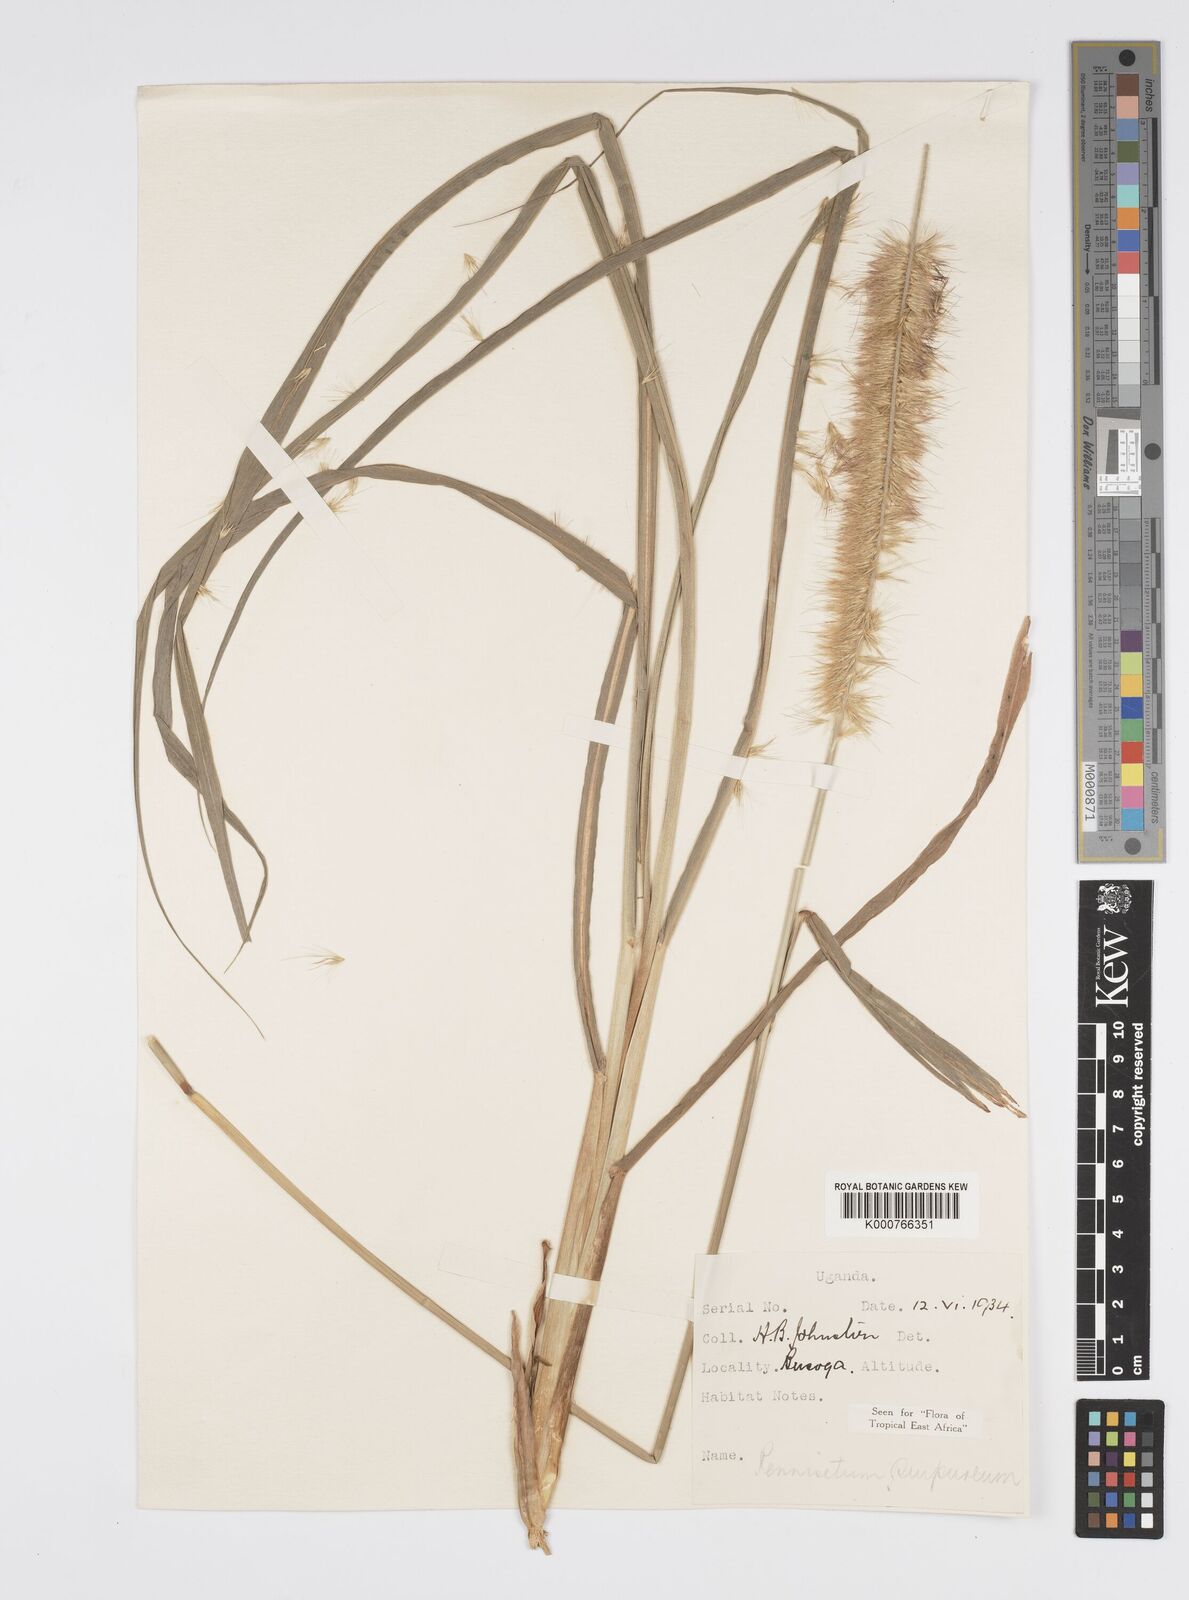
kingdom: Plantae
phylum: Tracheophyta
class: Liliopsida
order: Poales
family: Poaceae
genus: Cenchrus
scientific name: Cenchrus purpureus
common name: Elephant grass
